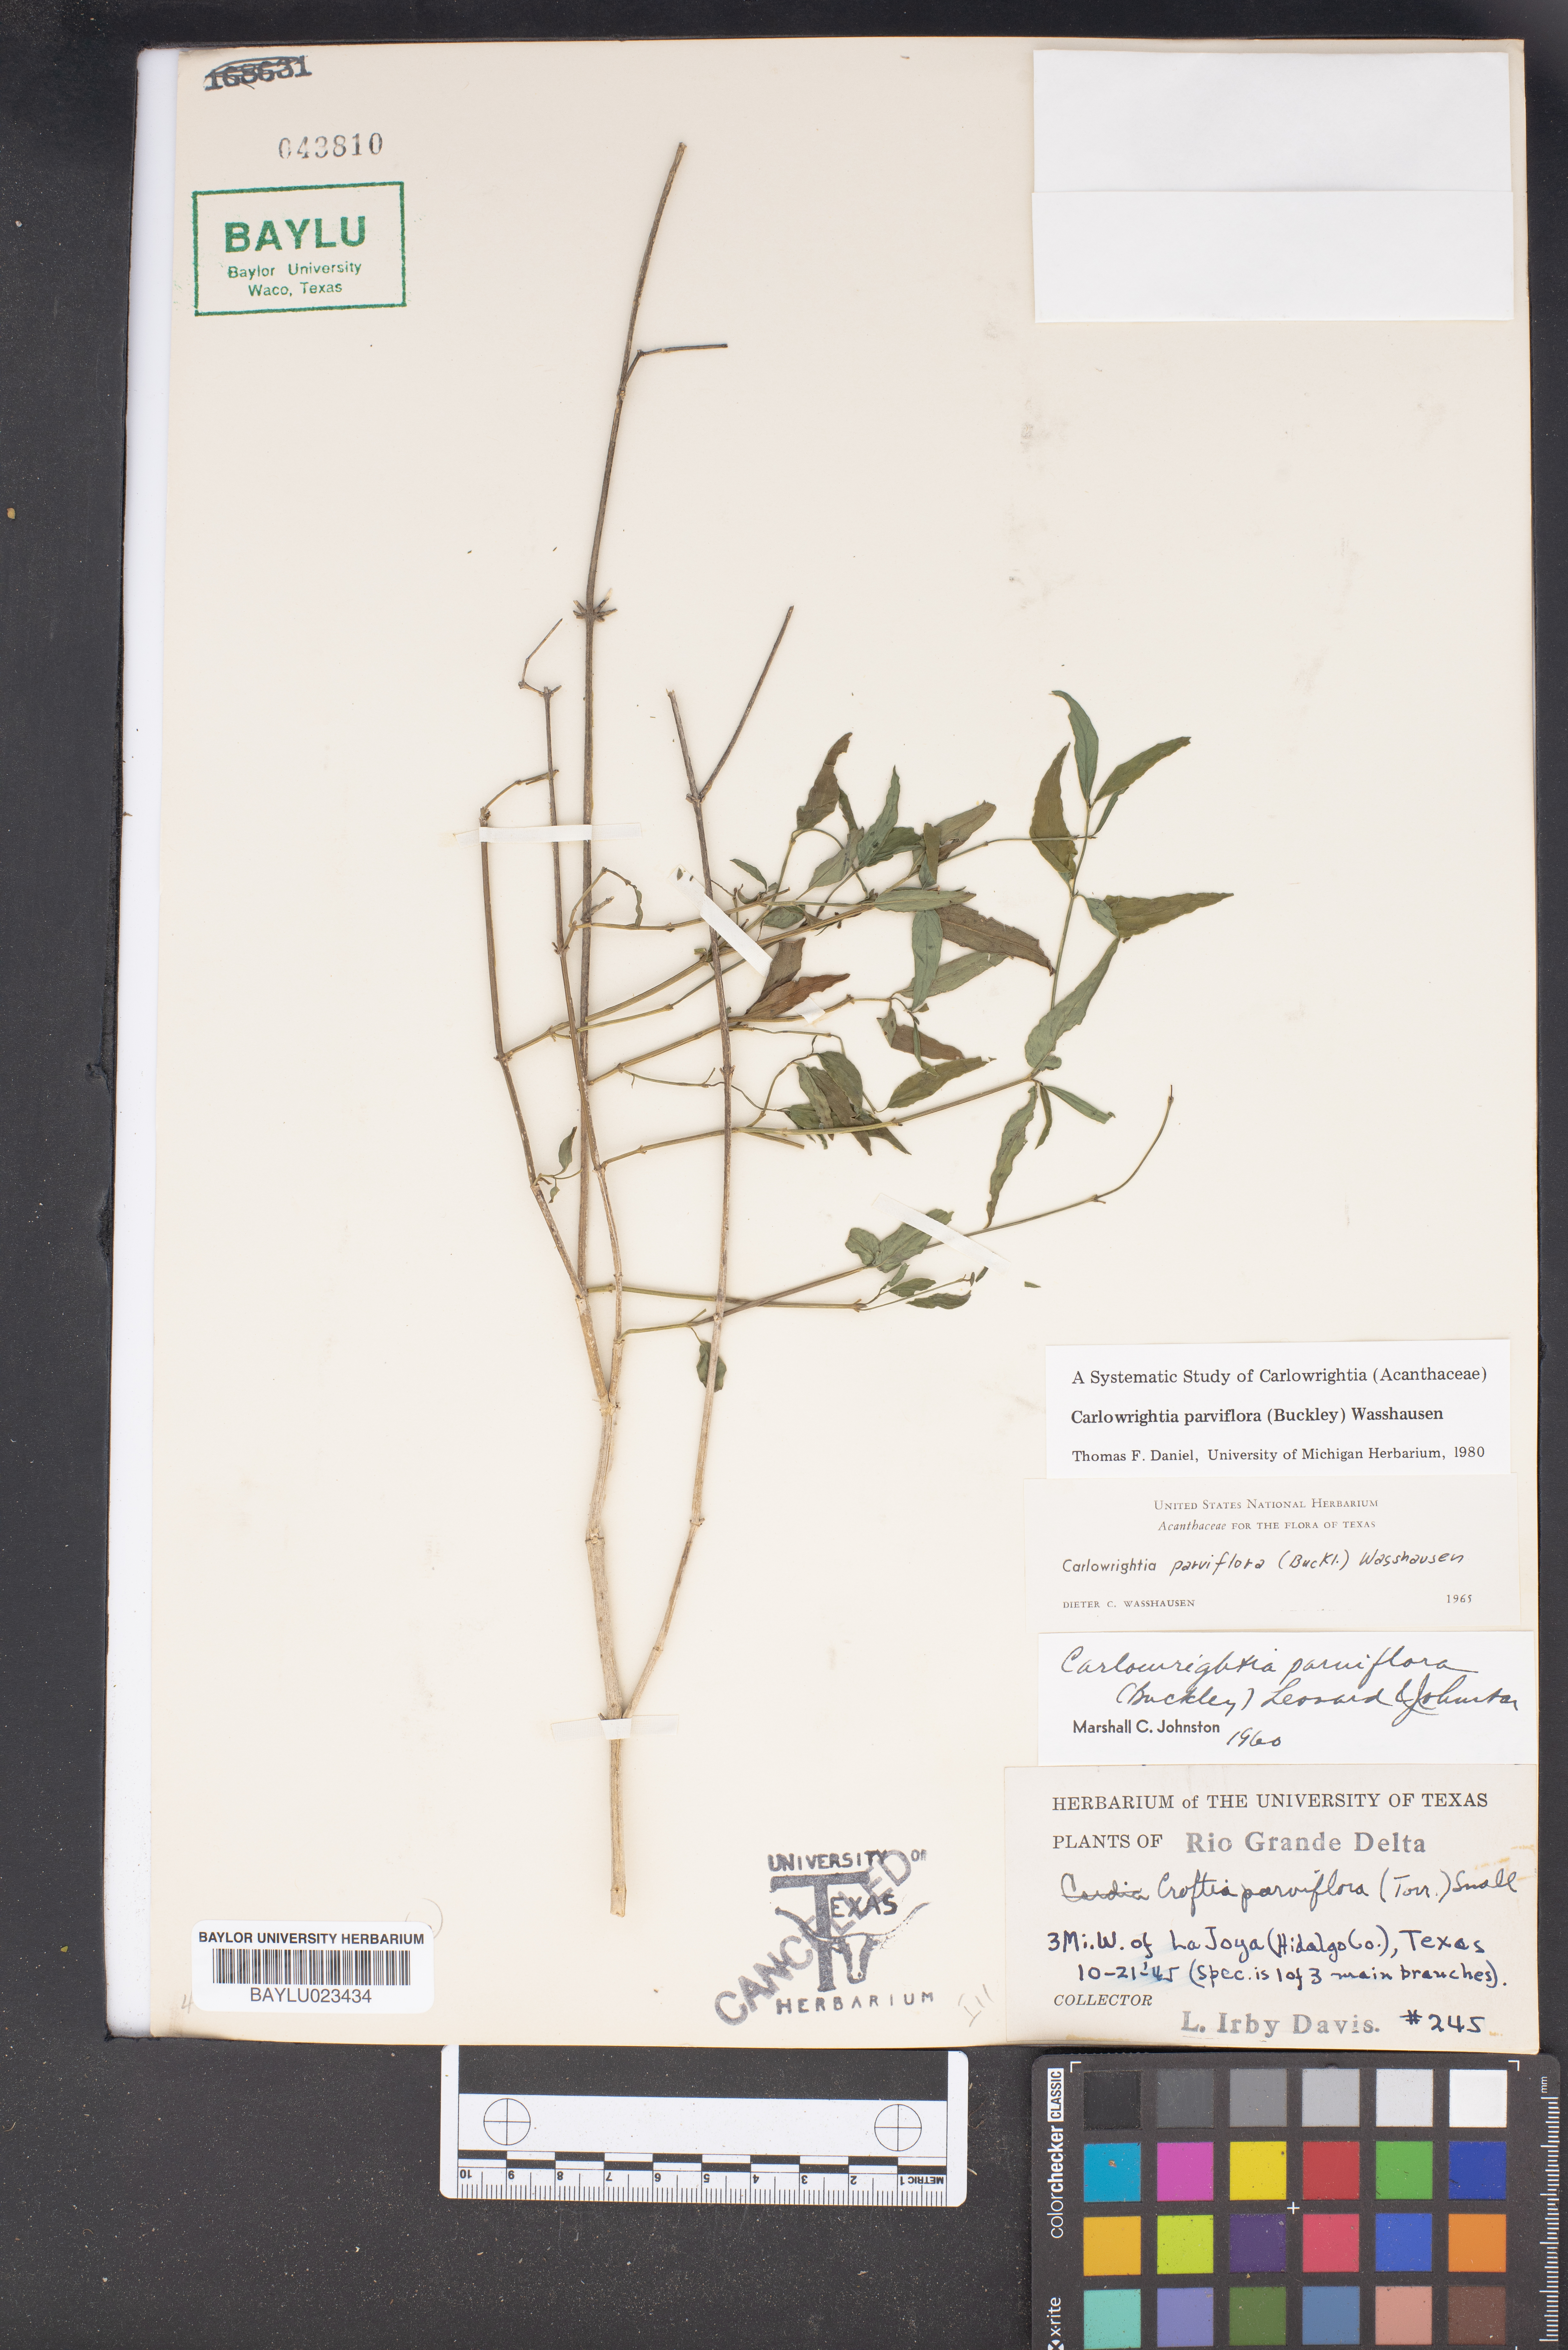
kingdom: Plantae
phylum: Tracheophyta
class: Magnoliopsida
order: Lamiales
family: Acanthaceae
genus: Carlowrightia
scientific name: Carlowrightia parviflora
